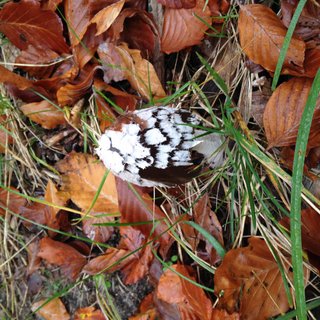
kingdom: Fungi
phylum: Basidiomycota
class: Agaricomycetes
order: Agaricales
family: Psathyrellaceae
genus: Coprinopsis
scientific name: Coprinopsis picacea
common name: skade-blækhat
